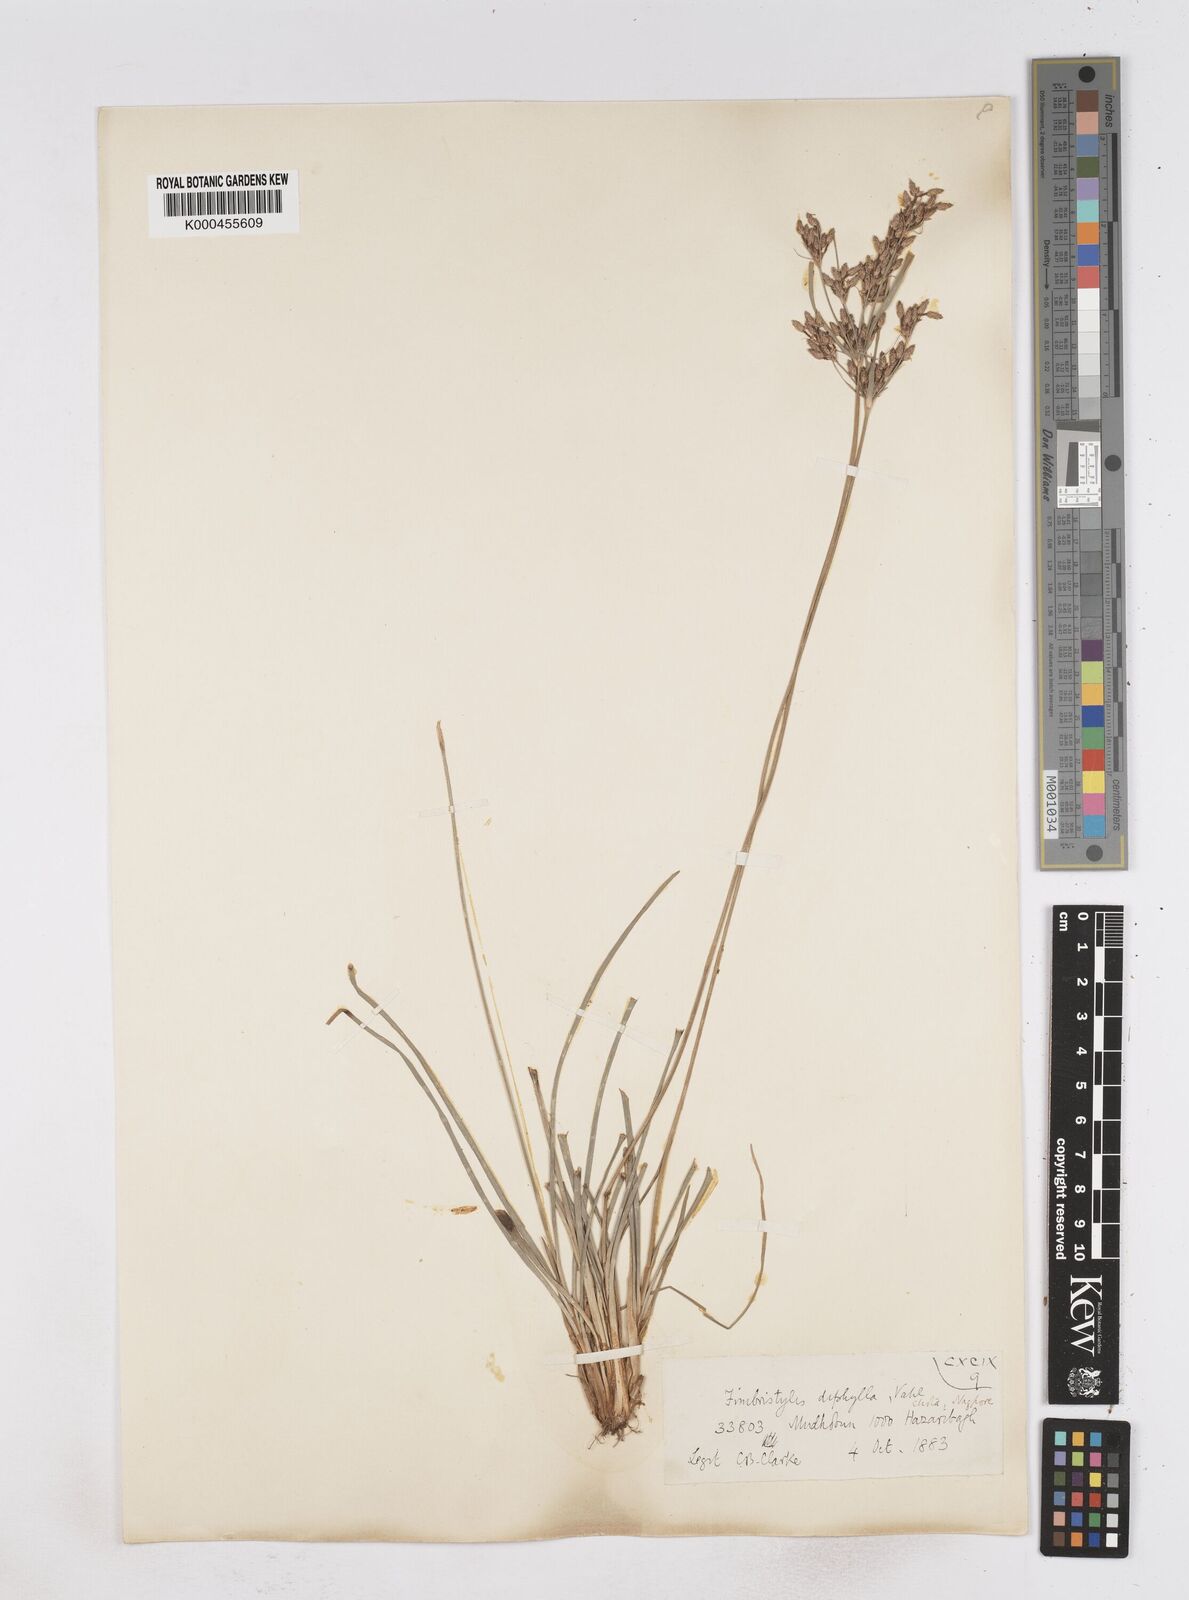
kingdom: Plantae
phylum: Tracheophyta
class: Liliopsida
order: Poales
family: Cyperaceae
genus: Fimbristylis
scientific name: Fimbristylis dichotoma
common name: Forked fimbry
